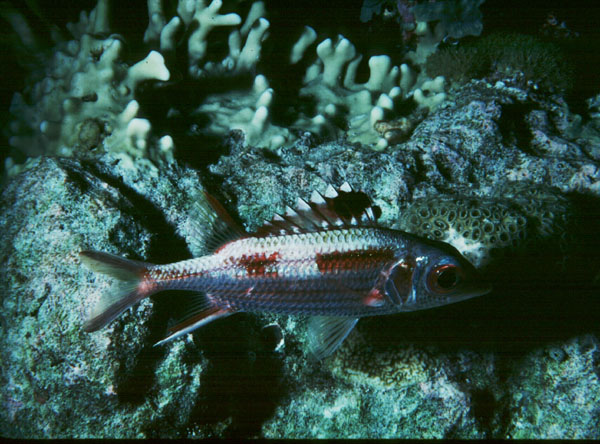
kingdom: Animalia
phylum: Chordata
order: Beryciformes
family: Holocentridae
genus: Neoniphon
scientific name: Neoniphon sammara
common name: Sammara squirrelfish
